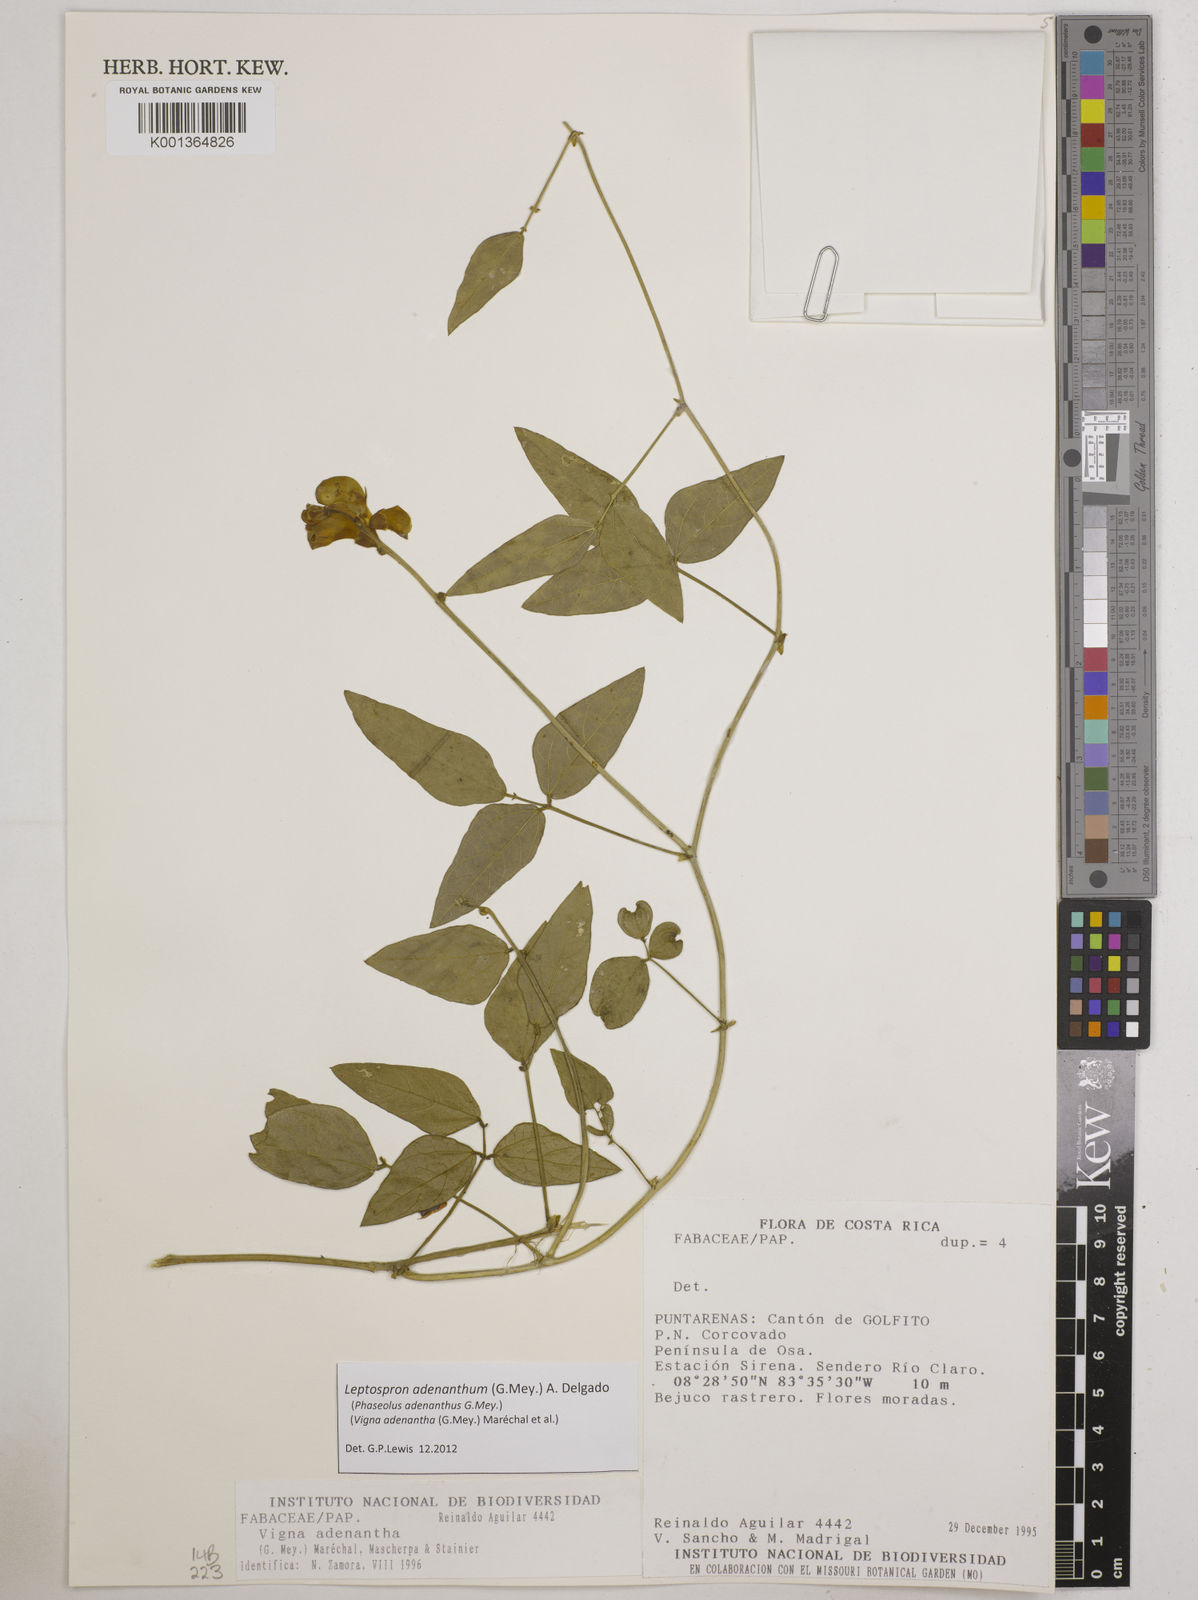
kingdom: Plantae
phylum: Tracheophyta
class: Magnoliopsida
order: Fabales
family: Fabaceae
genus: Leptospron
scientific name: Leptospron adenanthum
